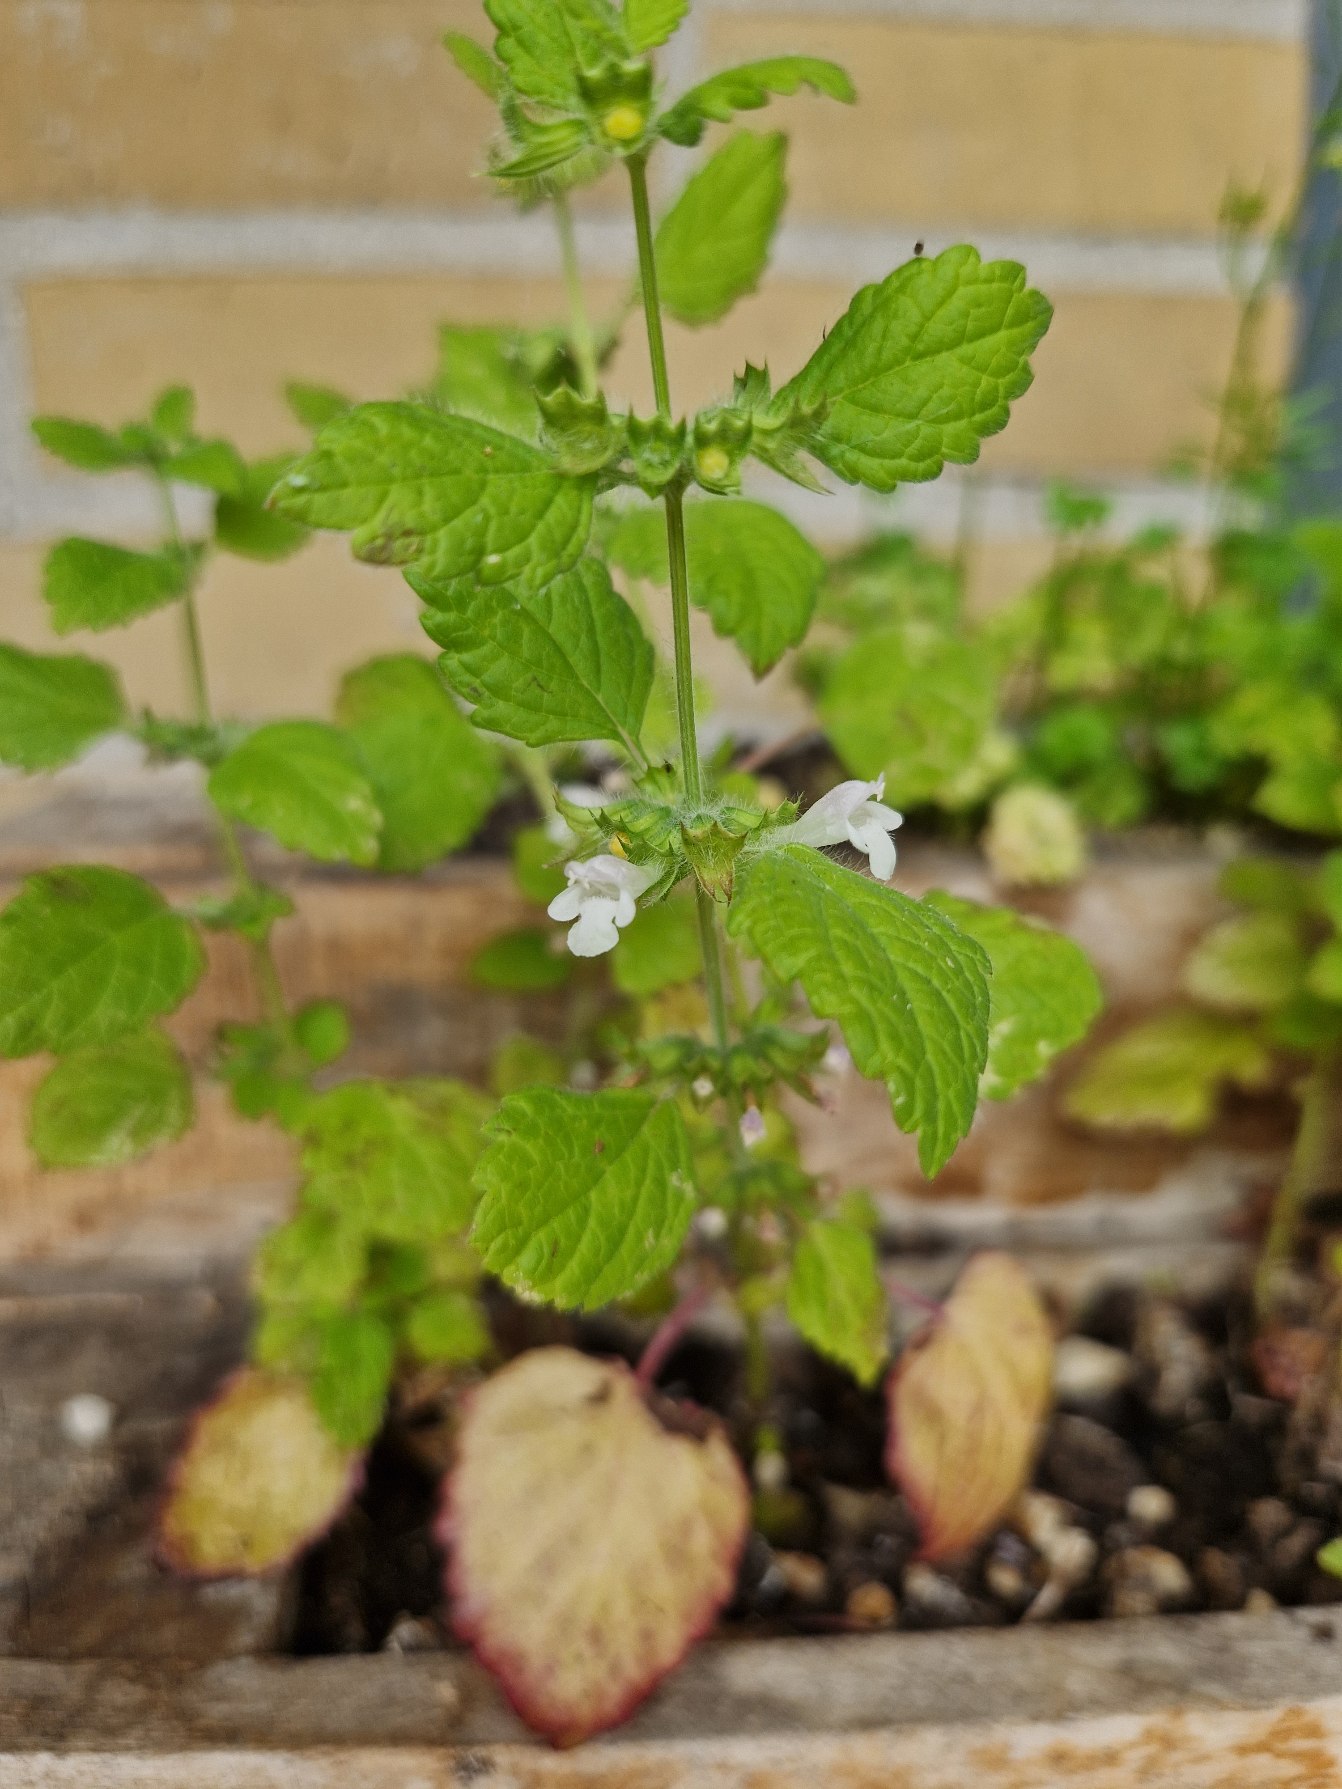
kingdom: Plantae
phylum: Tracheophyta
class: Magnoliopsida
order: Lamiales
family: Lamiaceae
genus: Melissa
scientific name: Melissa officinalis
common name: Citronmelisse
